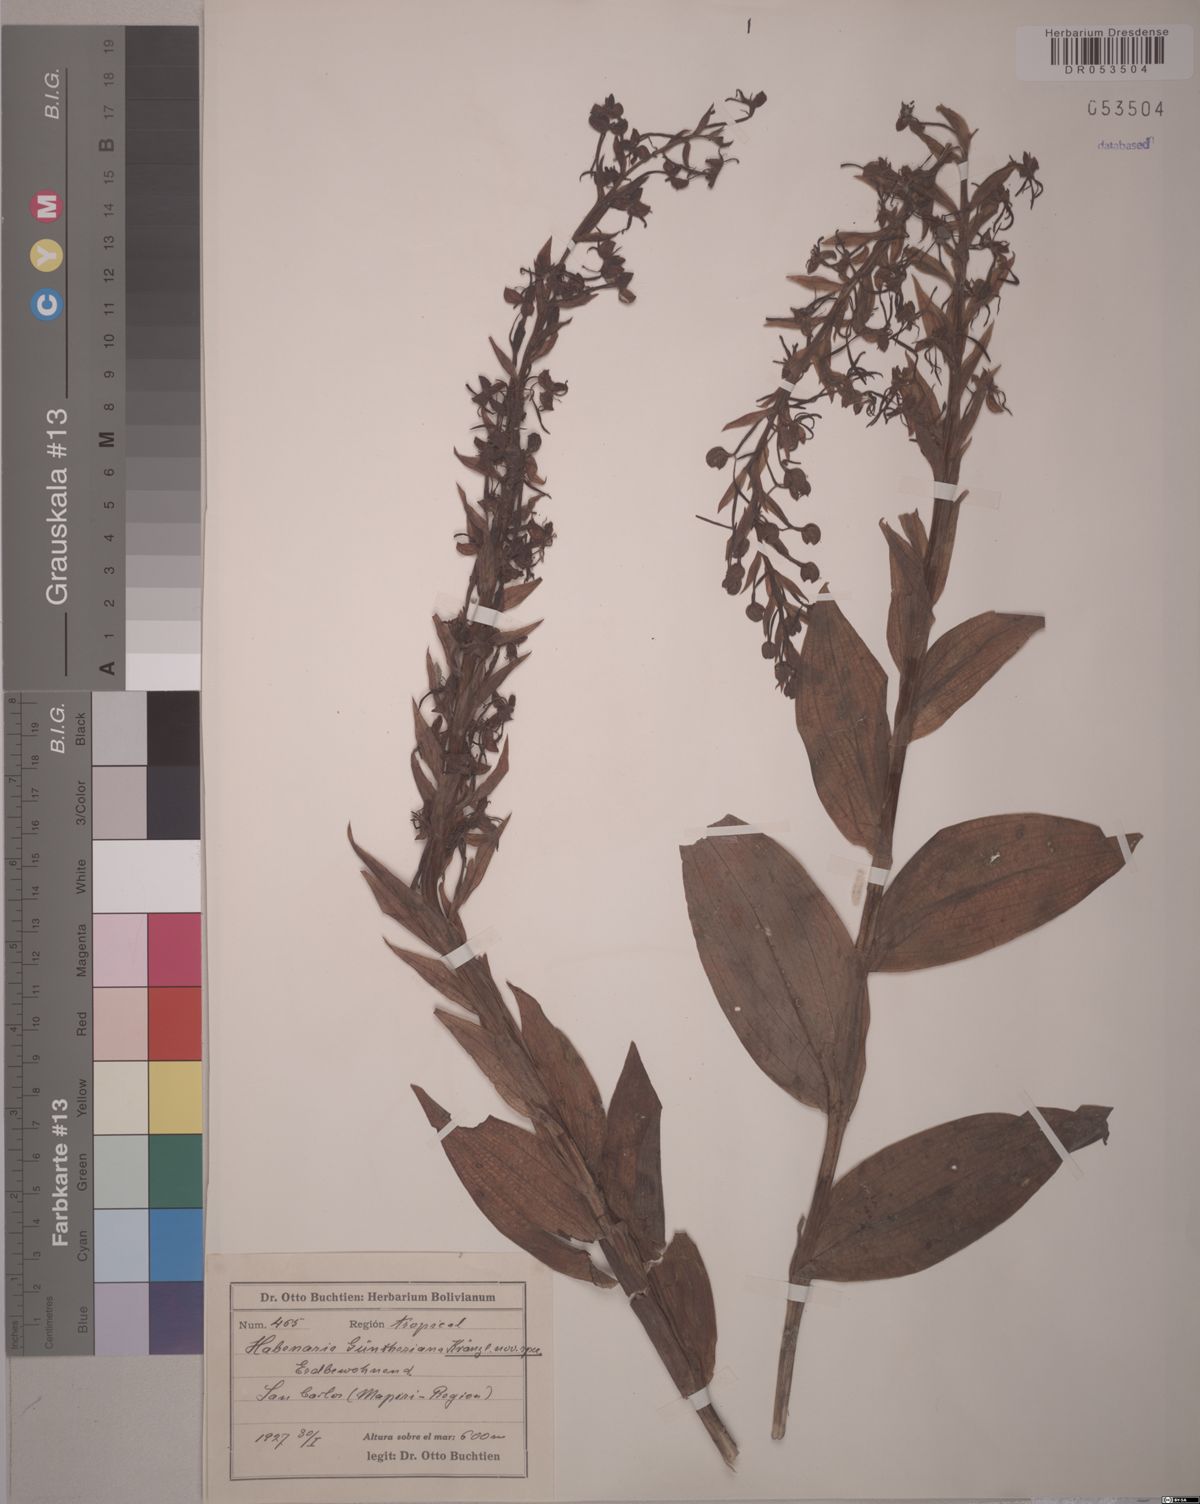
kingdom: Plantae
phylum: Tracheophyta
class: Liliopsida
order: Asparagales
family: Orchidaceae
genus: Habenaria
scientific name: Habenaria guentheriana
